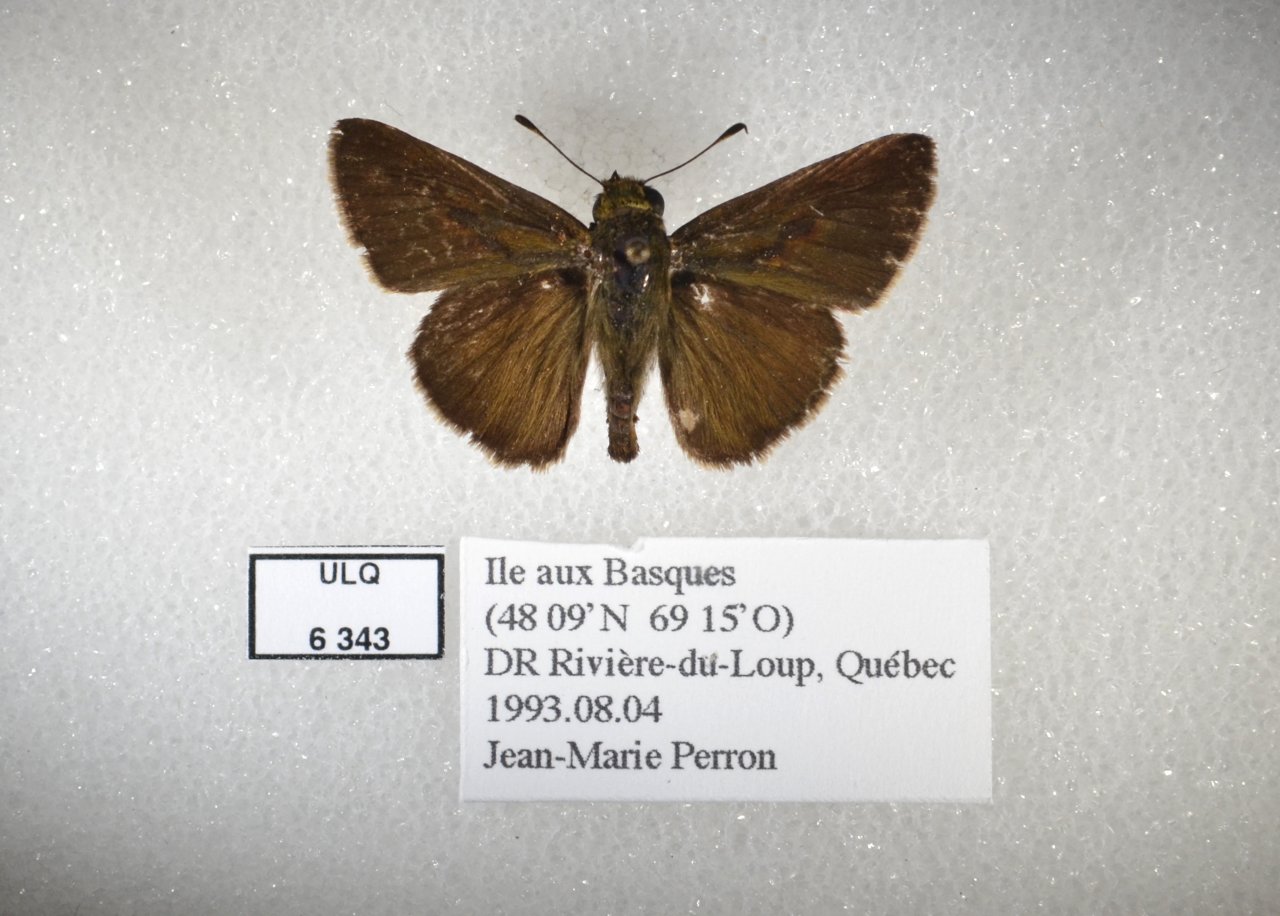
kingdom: Animalia
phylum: Arthropoda
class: Insecta
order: Lepidoptera
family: Hesperiidae
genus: Euphyes
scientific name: Euphyes vestris
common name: Dun Skipper
